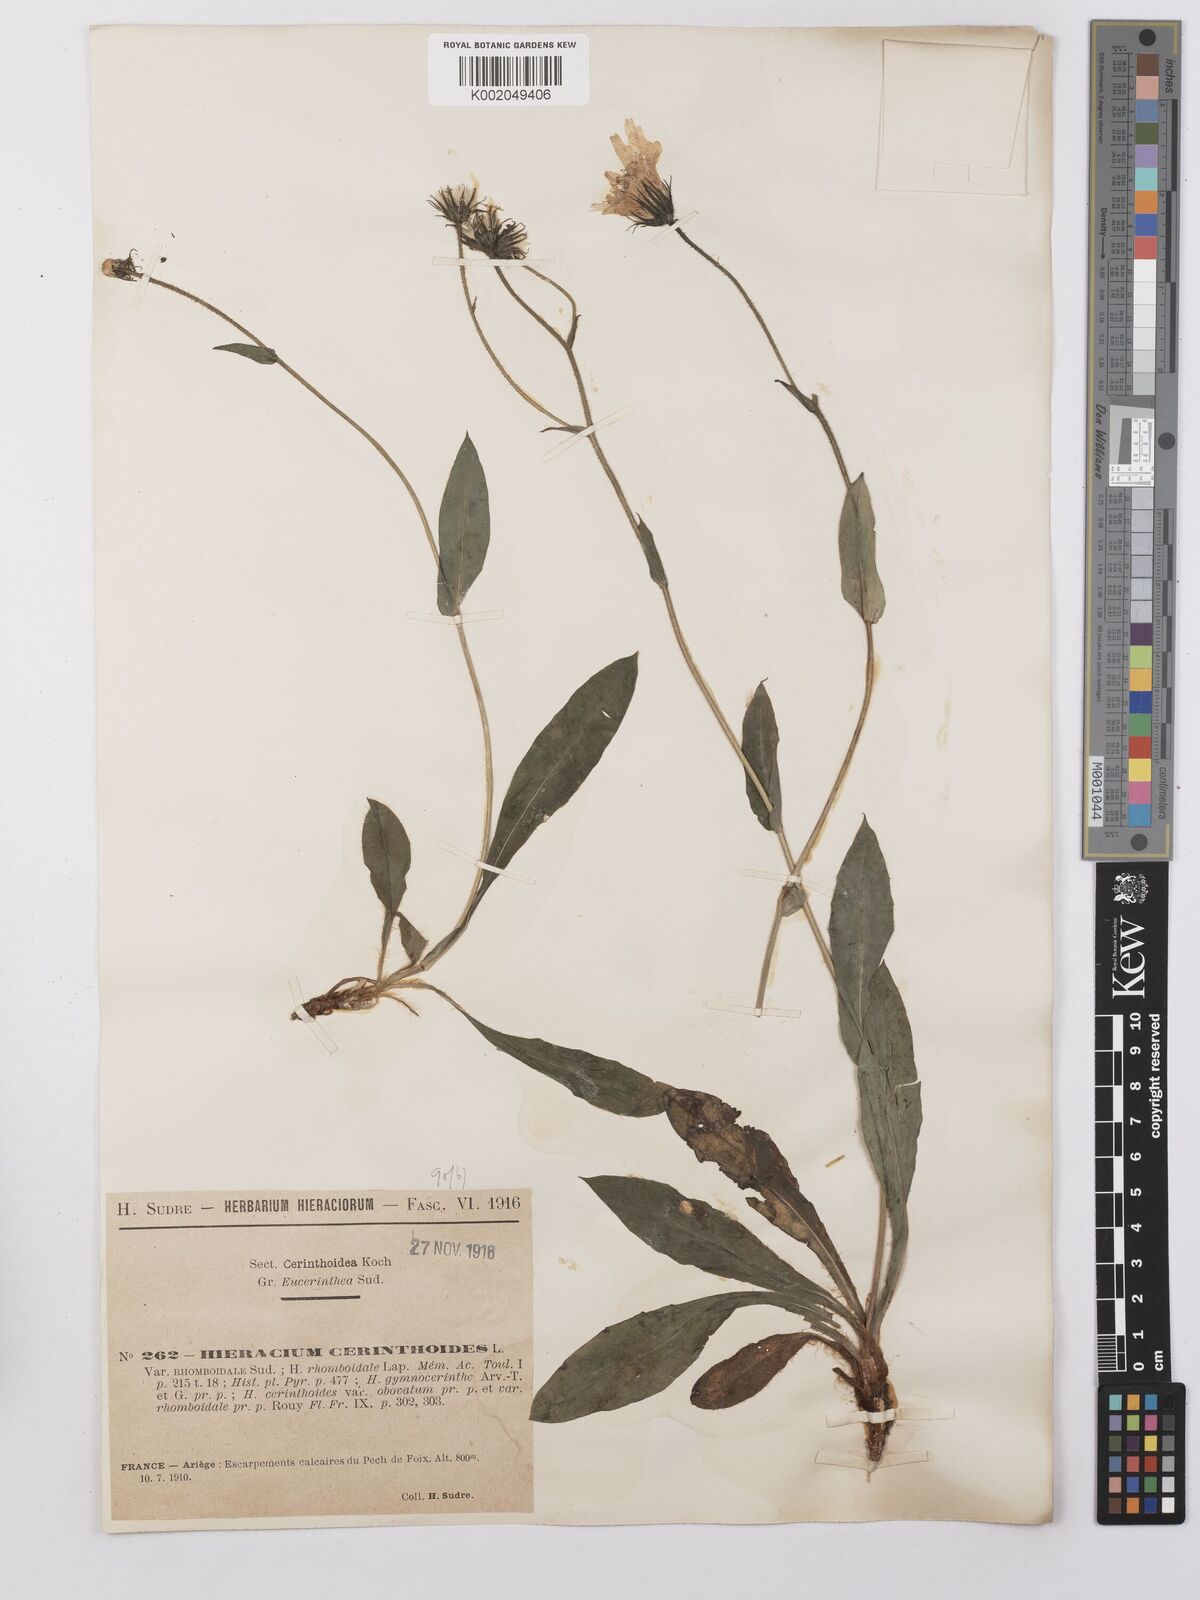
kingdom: Plantae
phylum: Tracheophyta
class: Magnoliopsida
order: Asterales
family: Asteraceae
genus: Hieracium
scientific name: Hieracium cerinthoides
